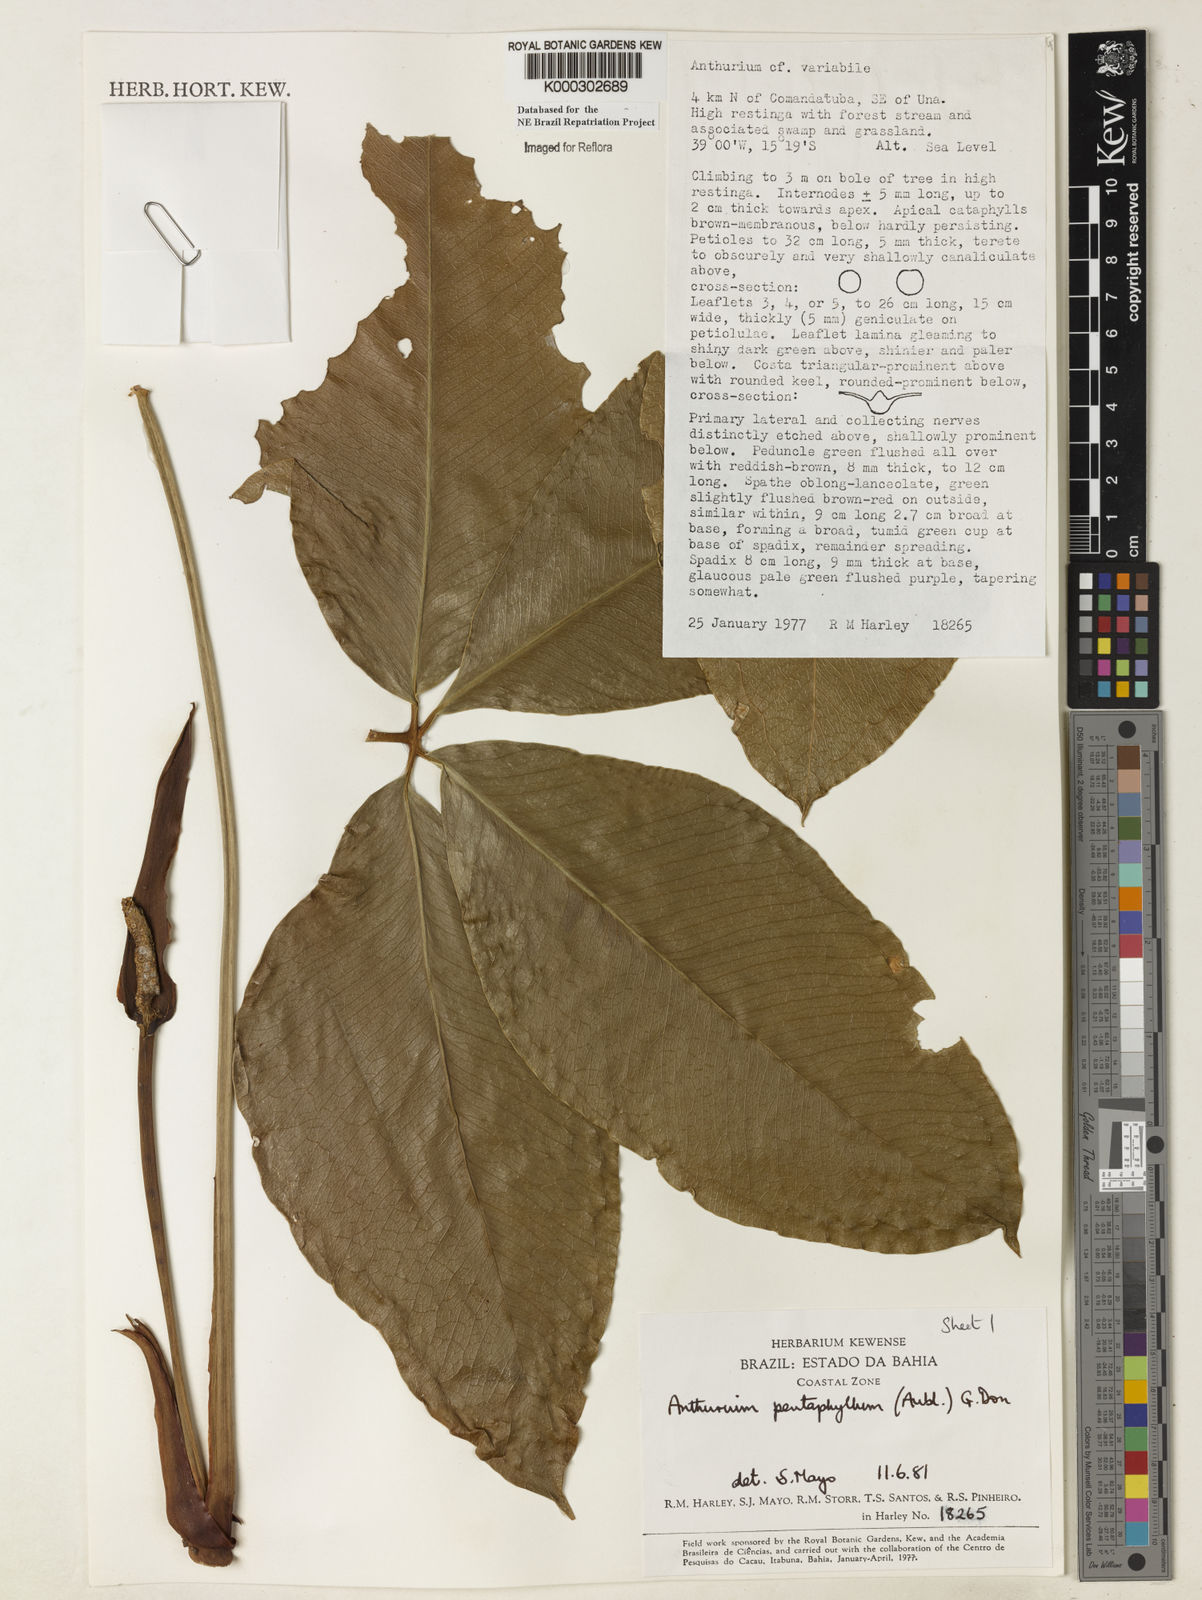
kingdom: Plantae
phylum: Tracheophyta
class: Liliopsida
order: Alismatales
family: Araceae
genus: Anthurium
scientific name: Anthurium pentaphyllum
